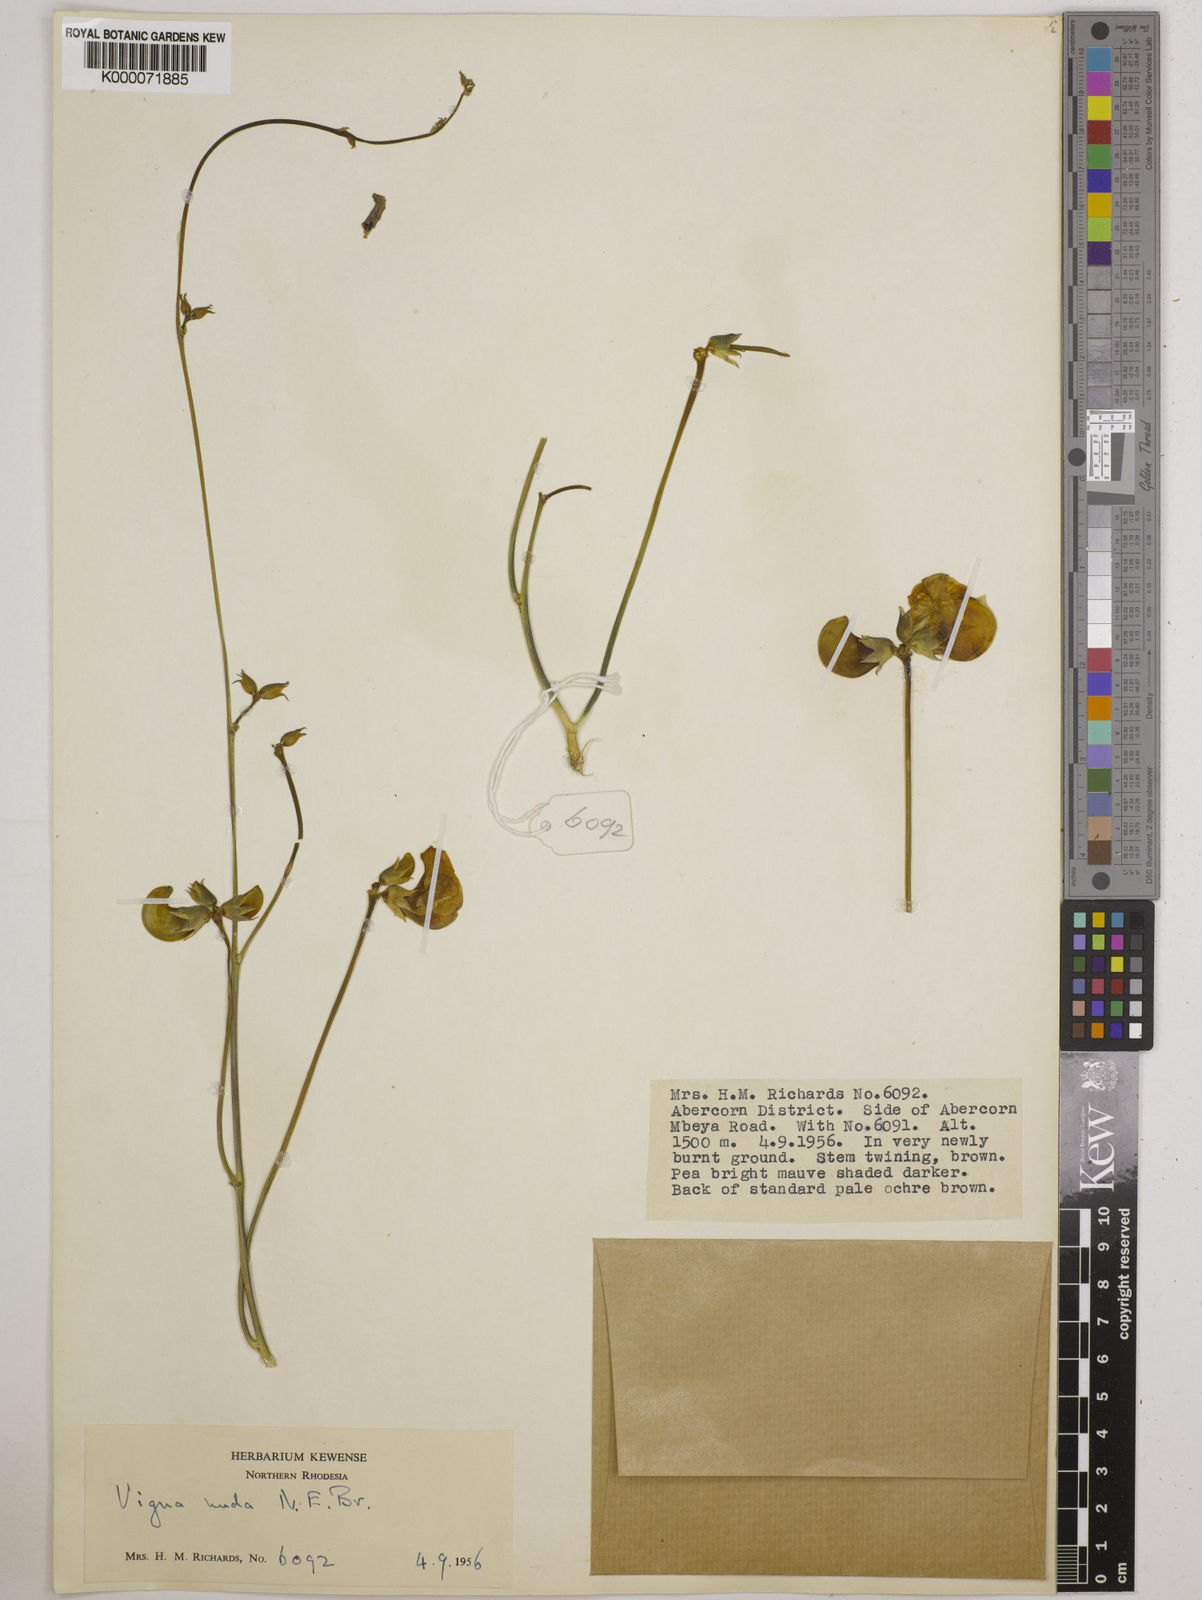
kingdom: Plantae
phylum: Tracheophyta
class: Magnoliopsida
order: Fabales
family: Fabaceae
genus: Vigna
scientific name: Vigna antunesii
